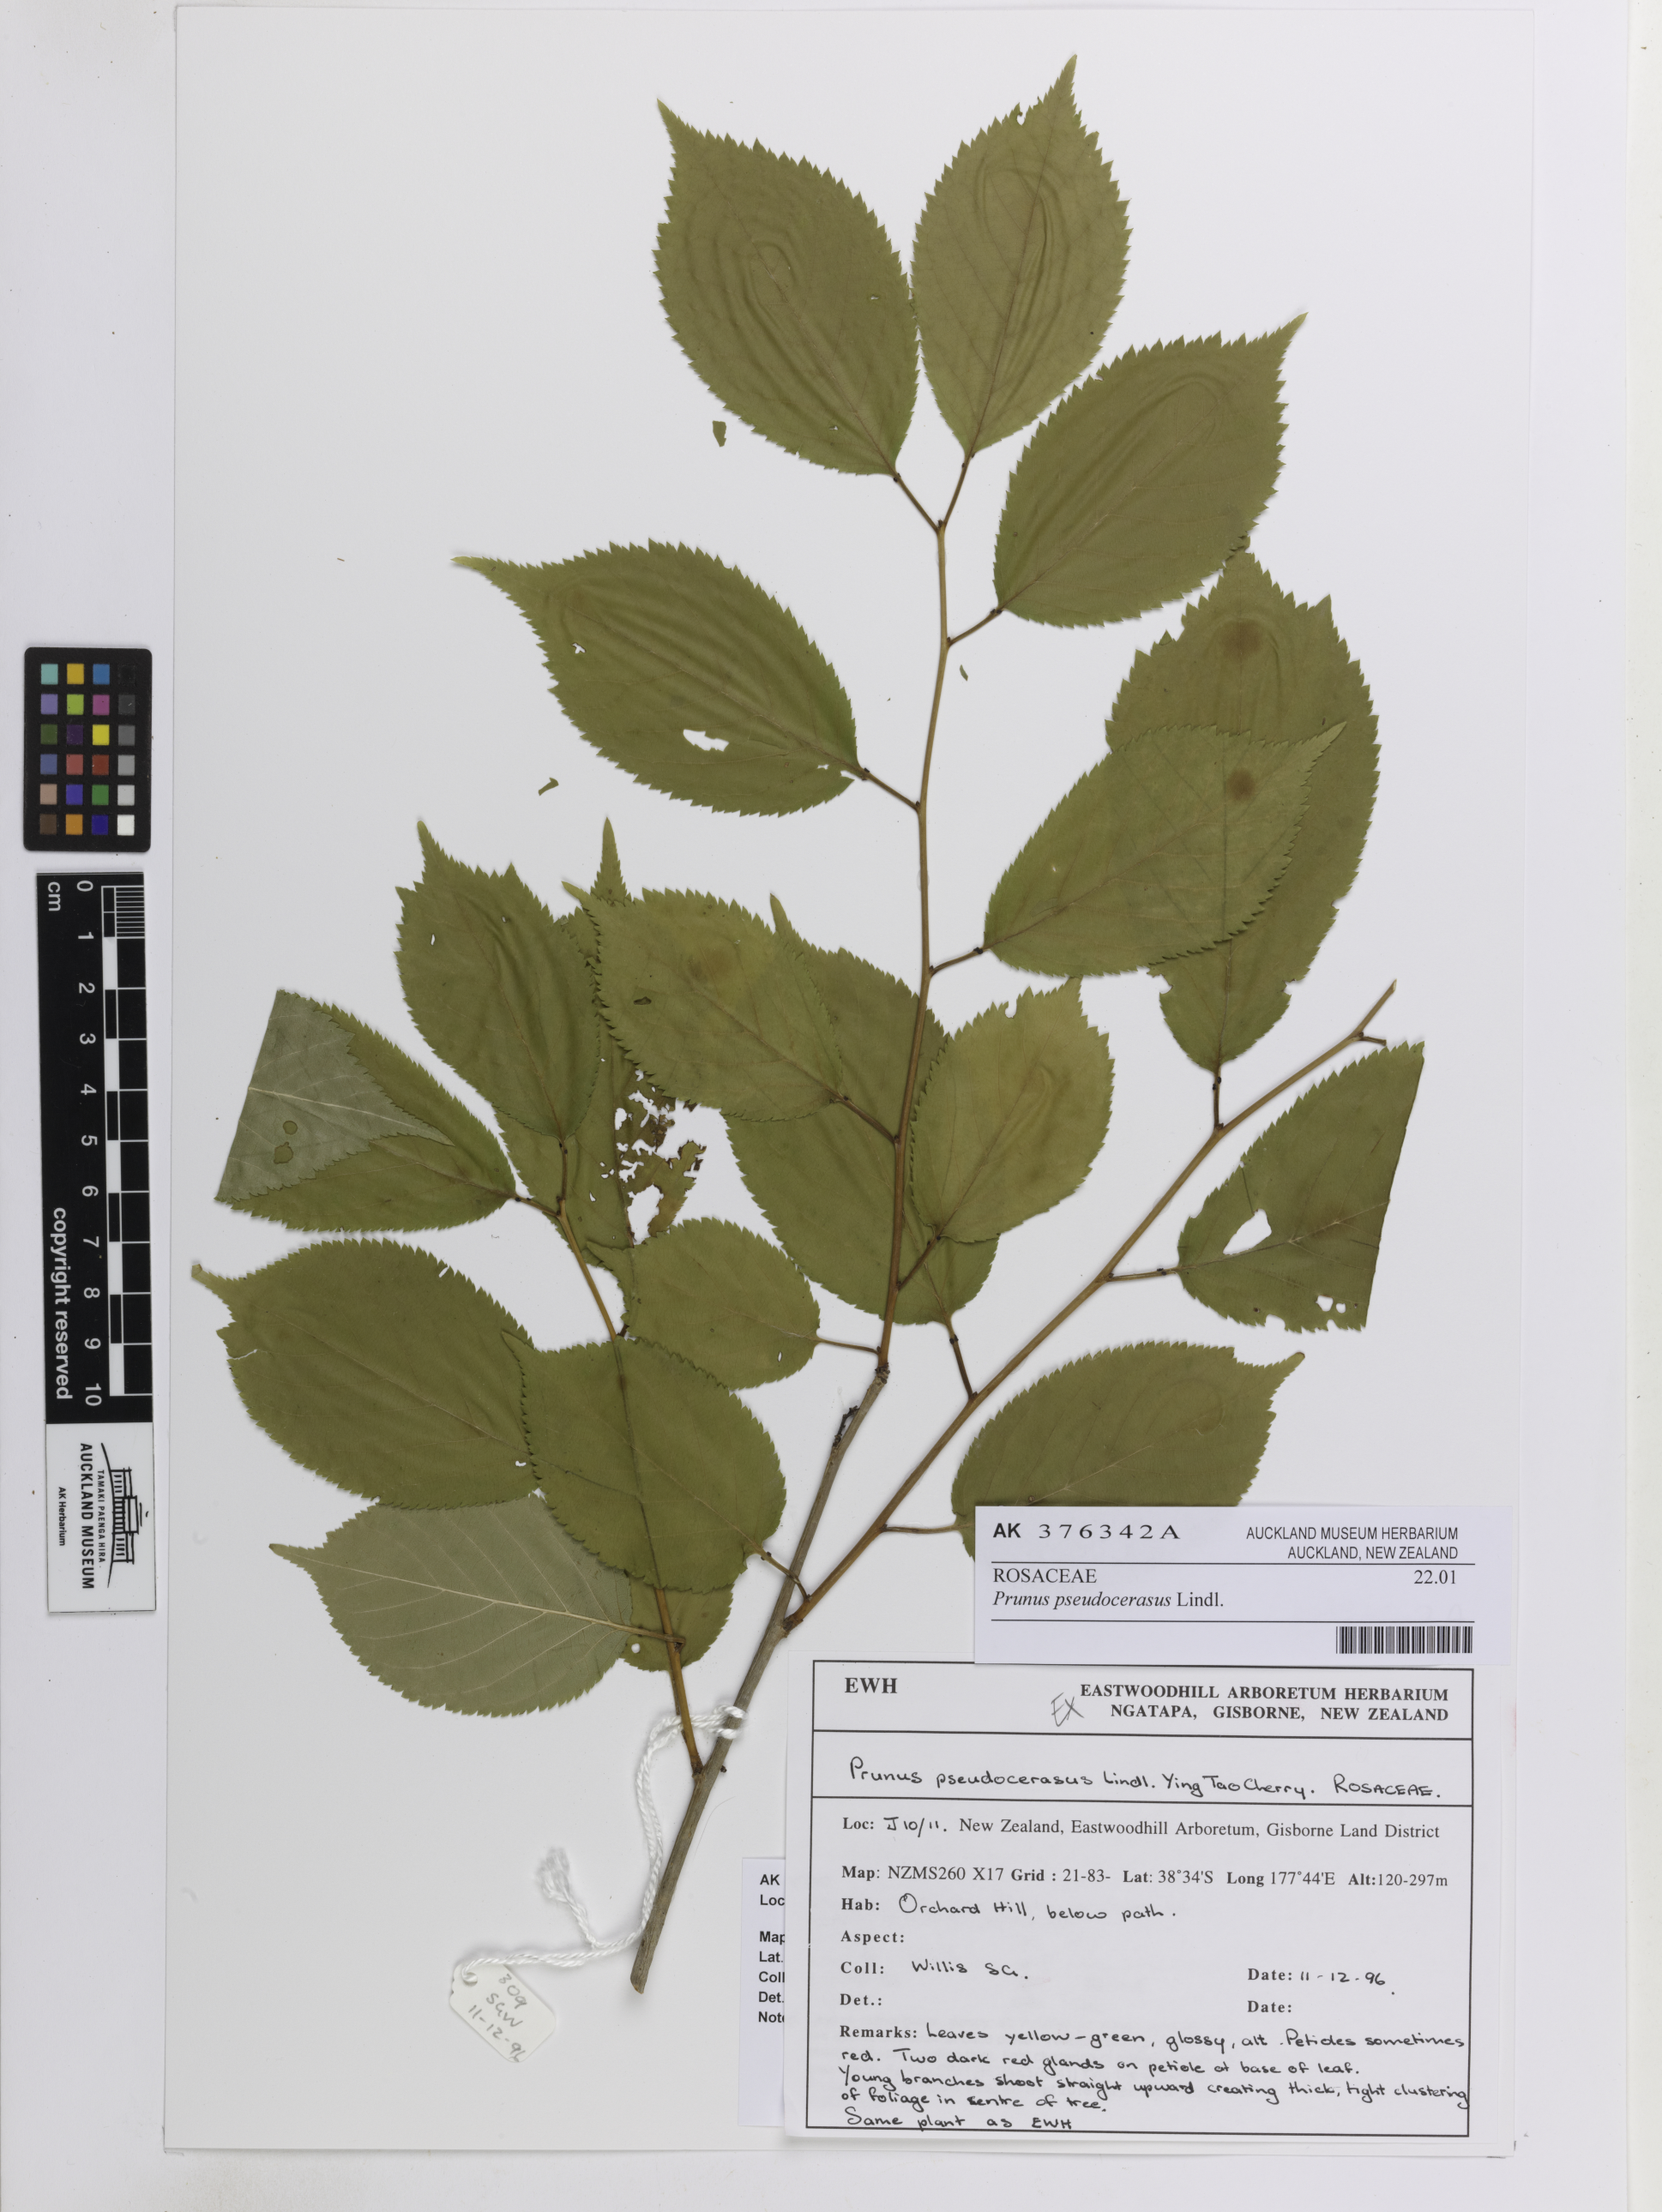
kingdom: Plantae
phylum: Tracheophyta
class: Magnoliopsida
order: Rosales
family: Rosaceae
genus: Prunus
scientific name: Prunus pseudocerasus
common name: Ying tao cherry
